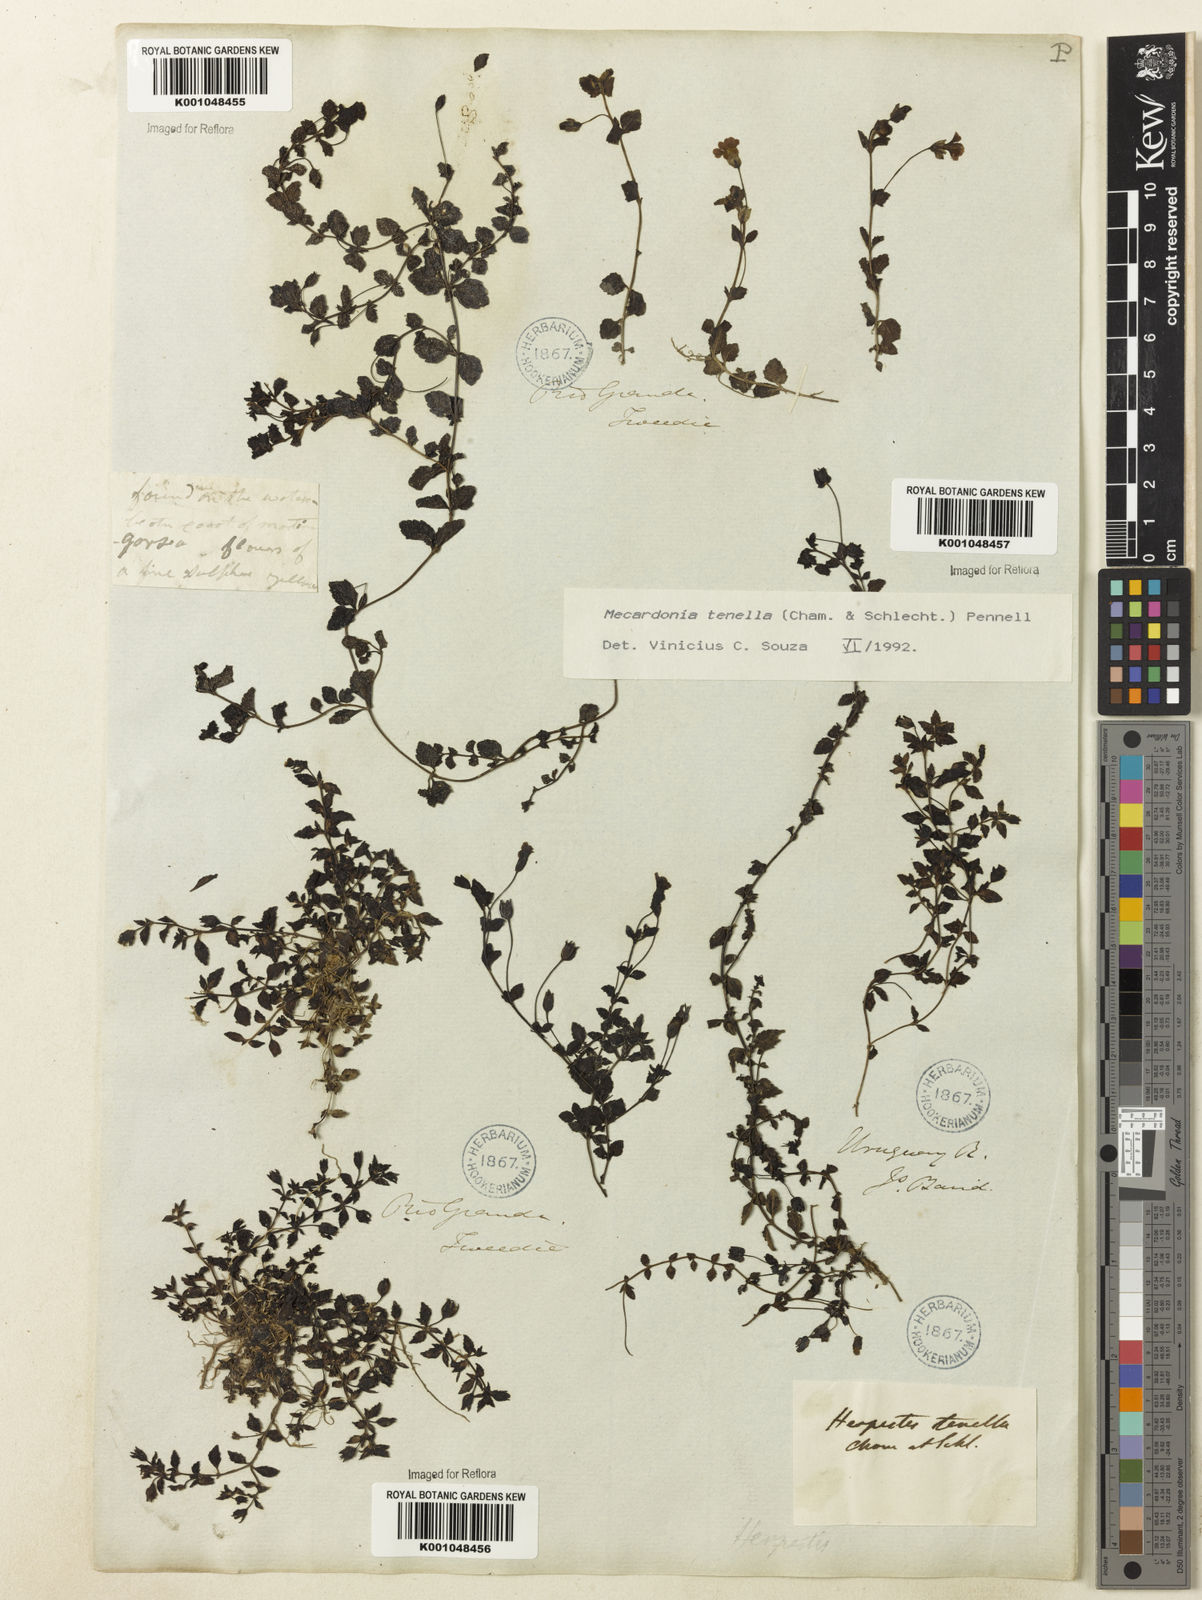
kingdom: Plantae
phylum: Tracheophyta
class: Magnoliopsida
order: Lamiales
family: Plantaginaceae
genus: Mecardonia
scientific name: Mecardonia procumbens
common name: Baby jump-up
